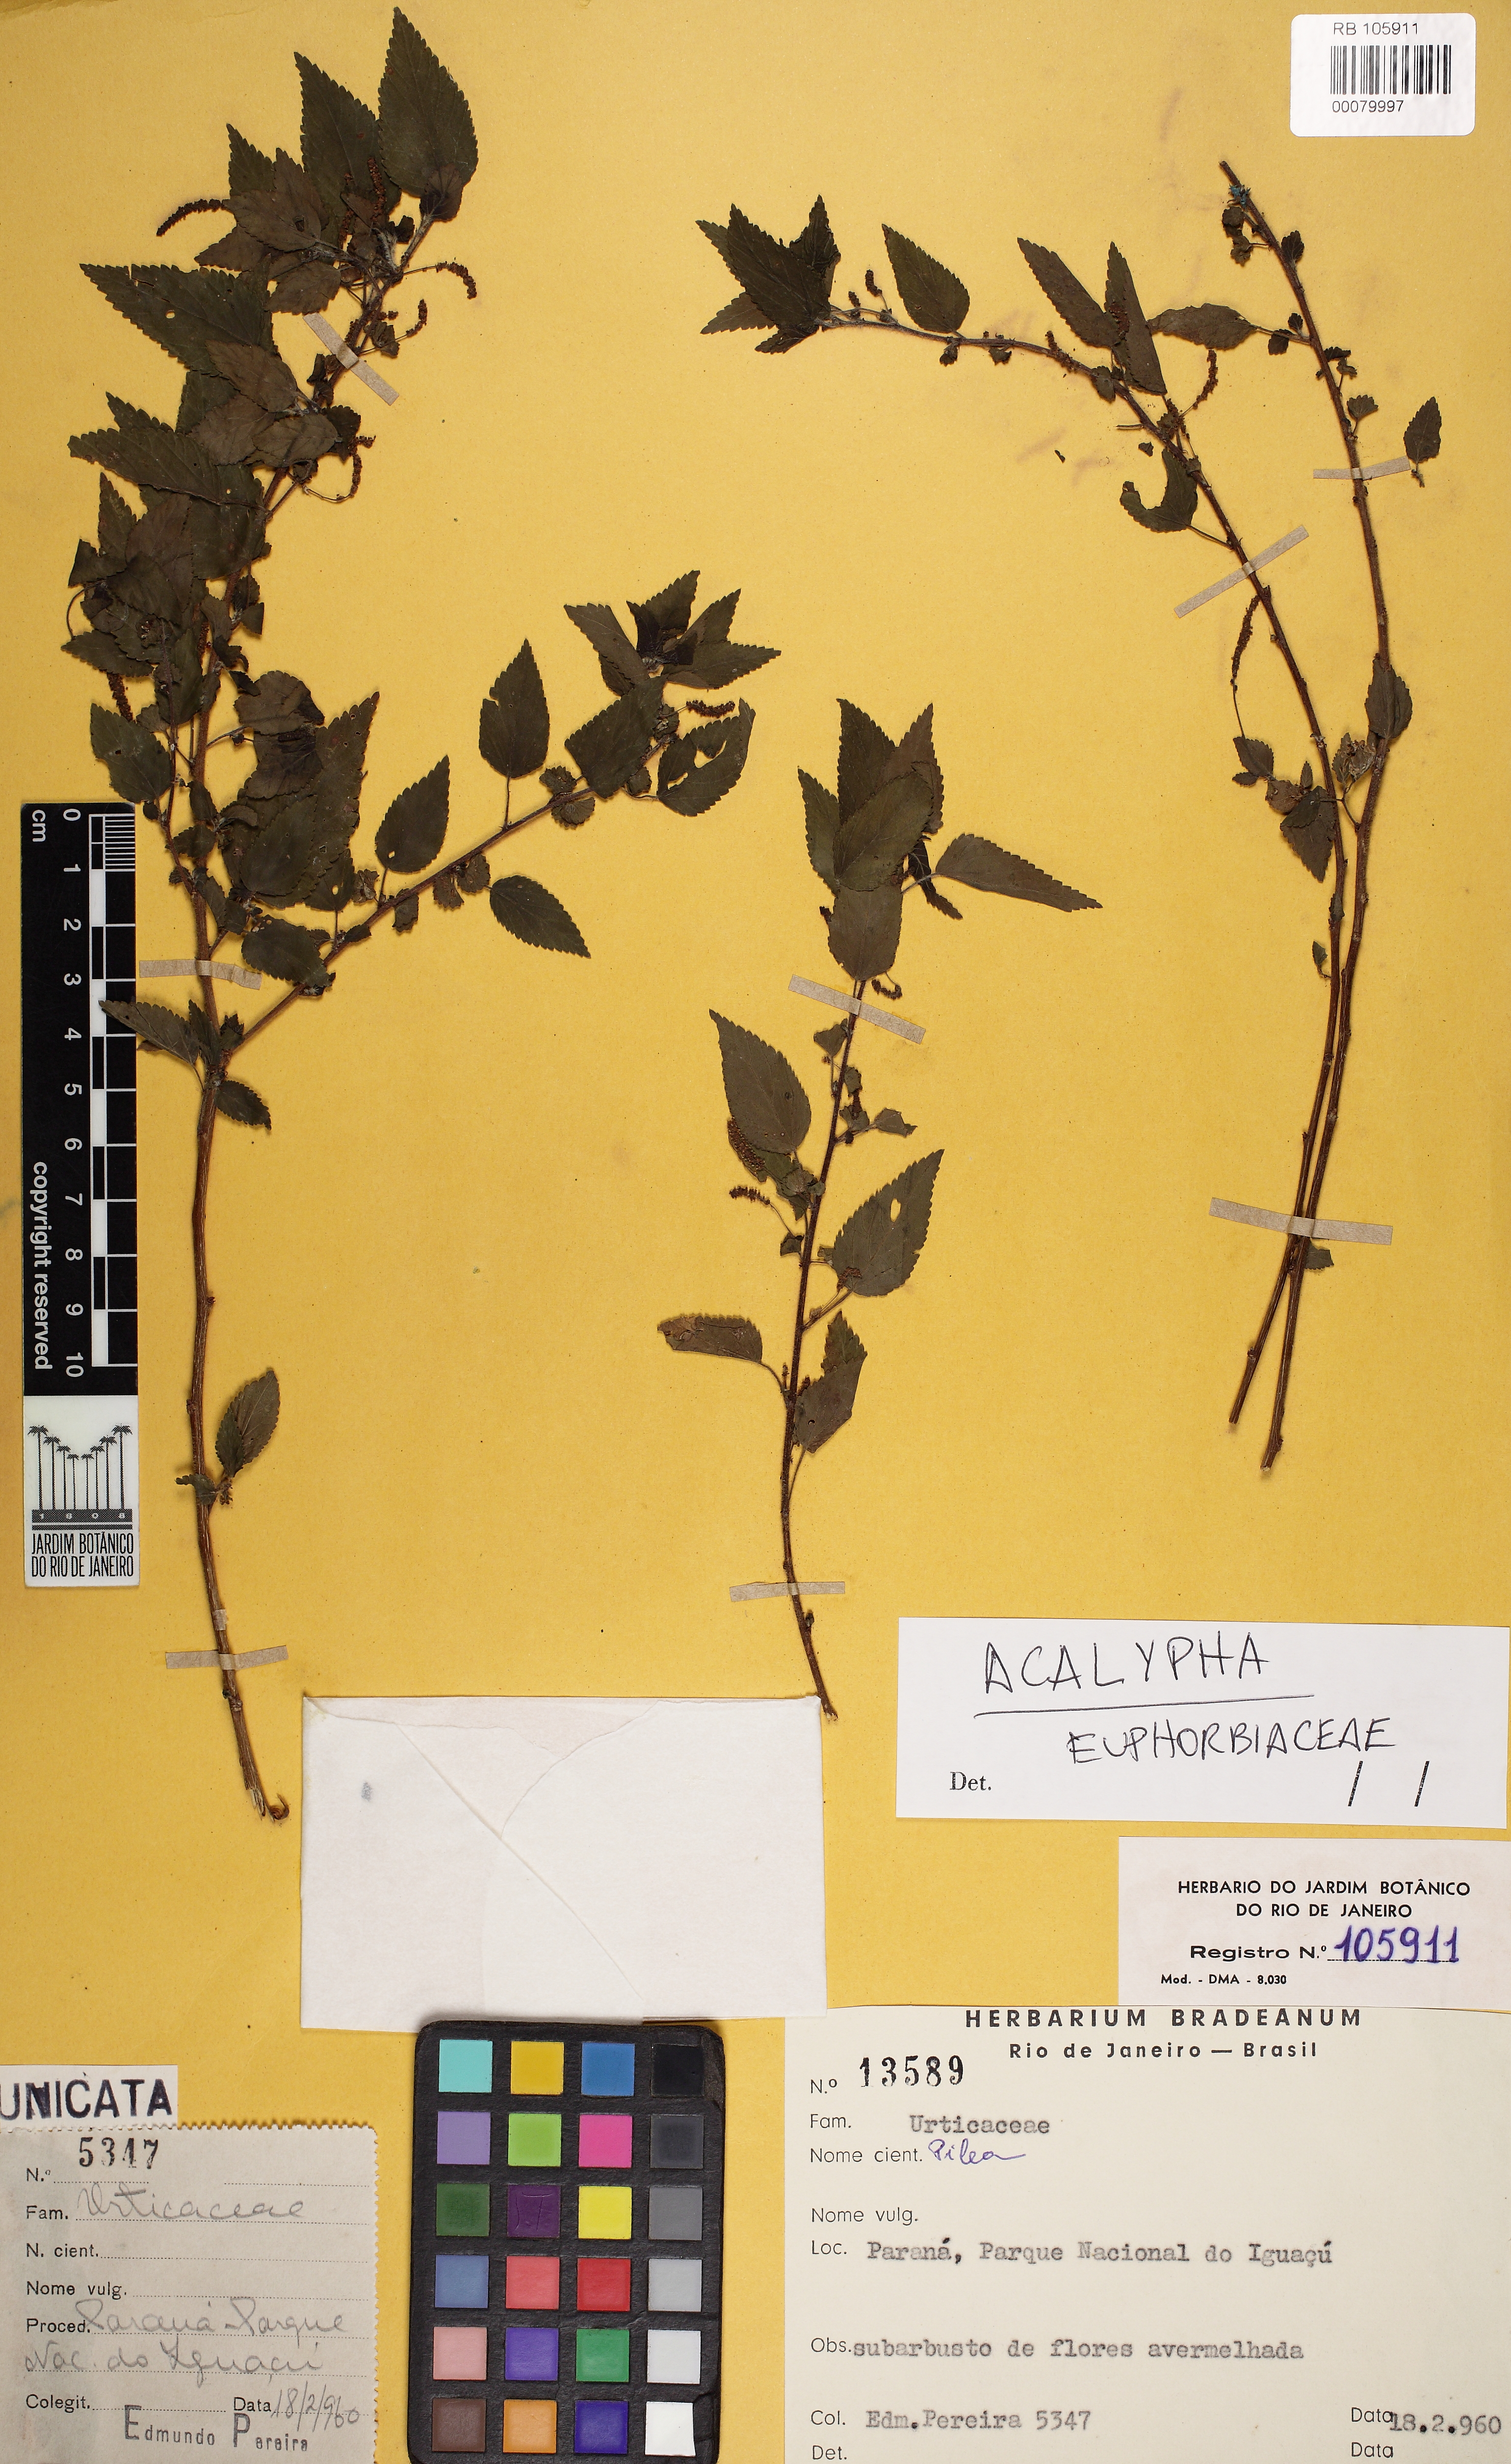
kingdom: Plantae
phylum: Tracheophyta
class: Magnoliopsida
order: Malpighiales
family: Euphorbiaceae
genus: Acalypha
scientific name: Acalypha multicaulis
